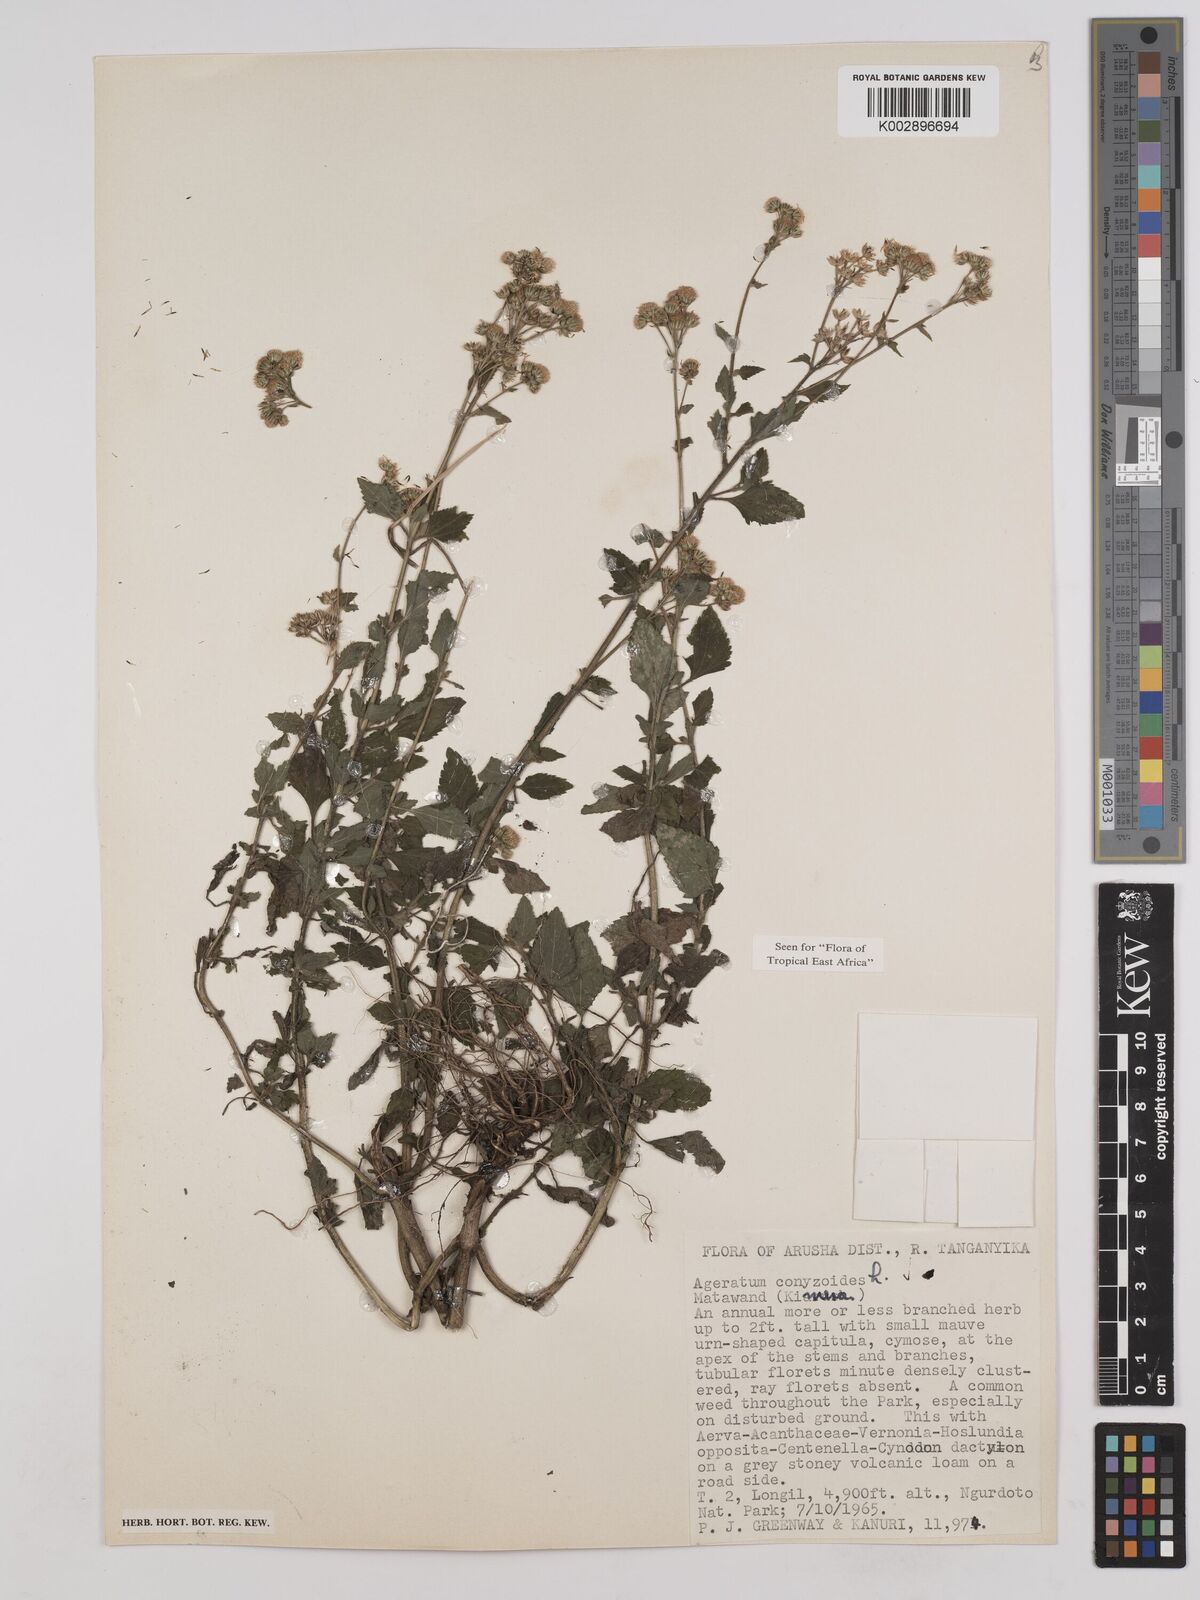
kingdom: Plantae
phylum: Tracheophyta
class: Magnoliopsida
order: Asterales
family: Asteraceae
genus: Ageratum
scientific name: Ageratum conyzoides
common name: Tropical whiteweed
